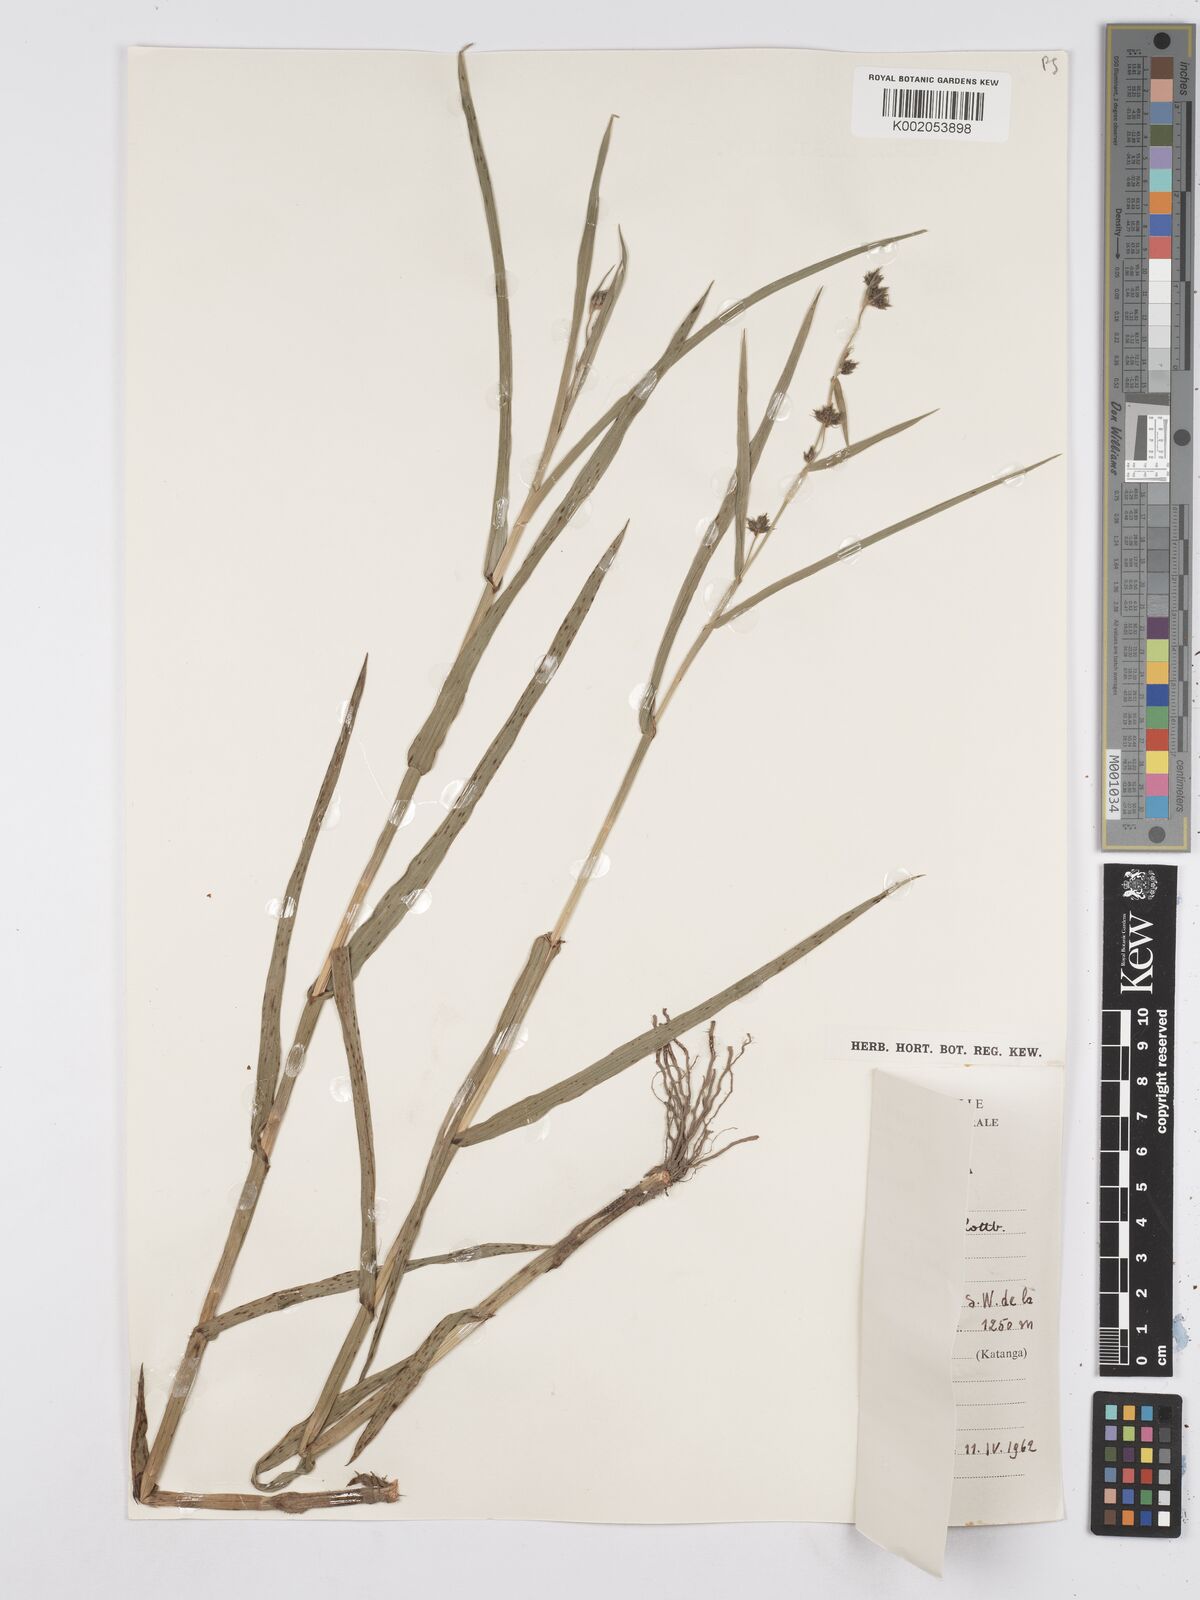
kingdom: Plantae
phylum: Tracheophyta
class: Liliopsida
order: Poales
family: Cyperaceae
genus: Fuirena
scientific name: Fuirena umbellata
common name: Yefen
